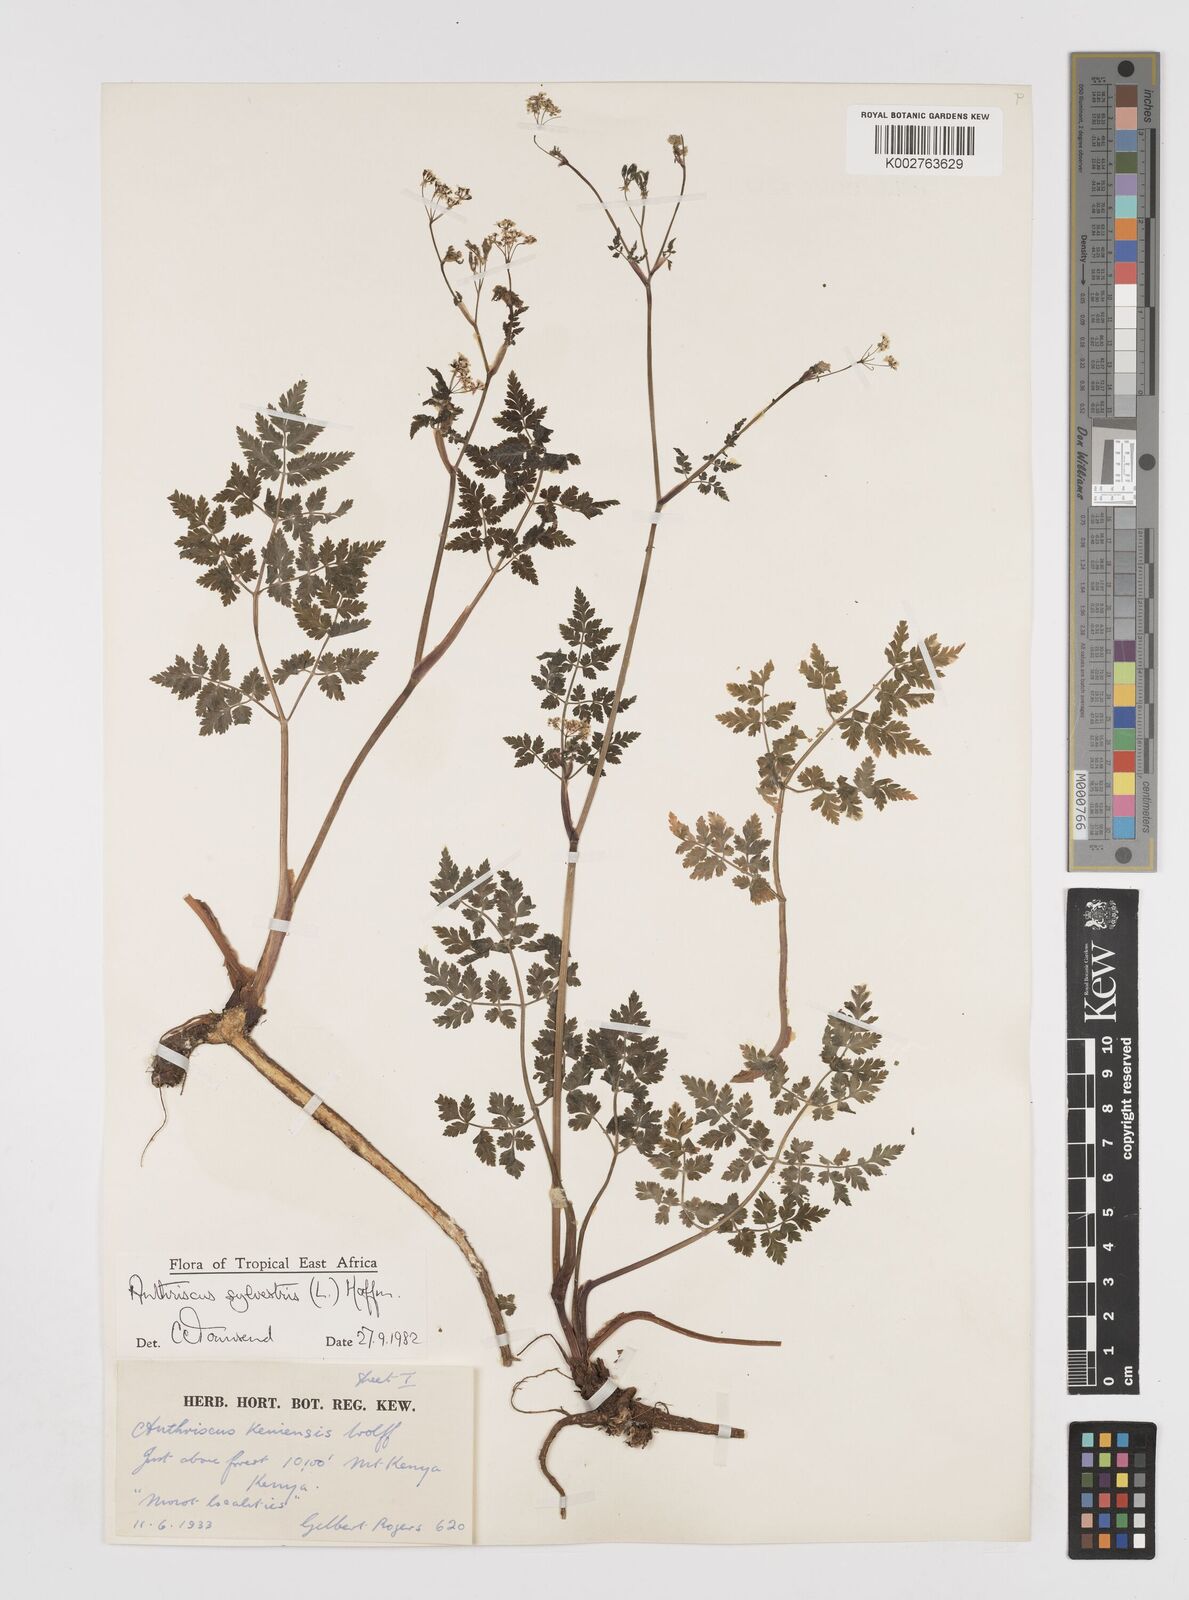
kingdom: Plantae
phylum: Tracheophyta
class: Magnoliopsida
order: Apiales
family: Apiaceae
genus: Anthriscus
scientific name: Anthriscus sylvestris
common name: Cow parsley
